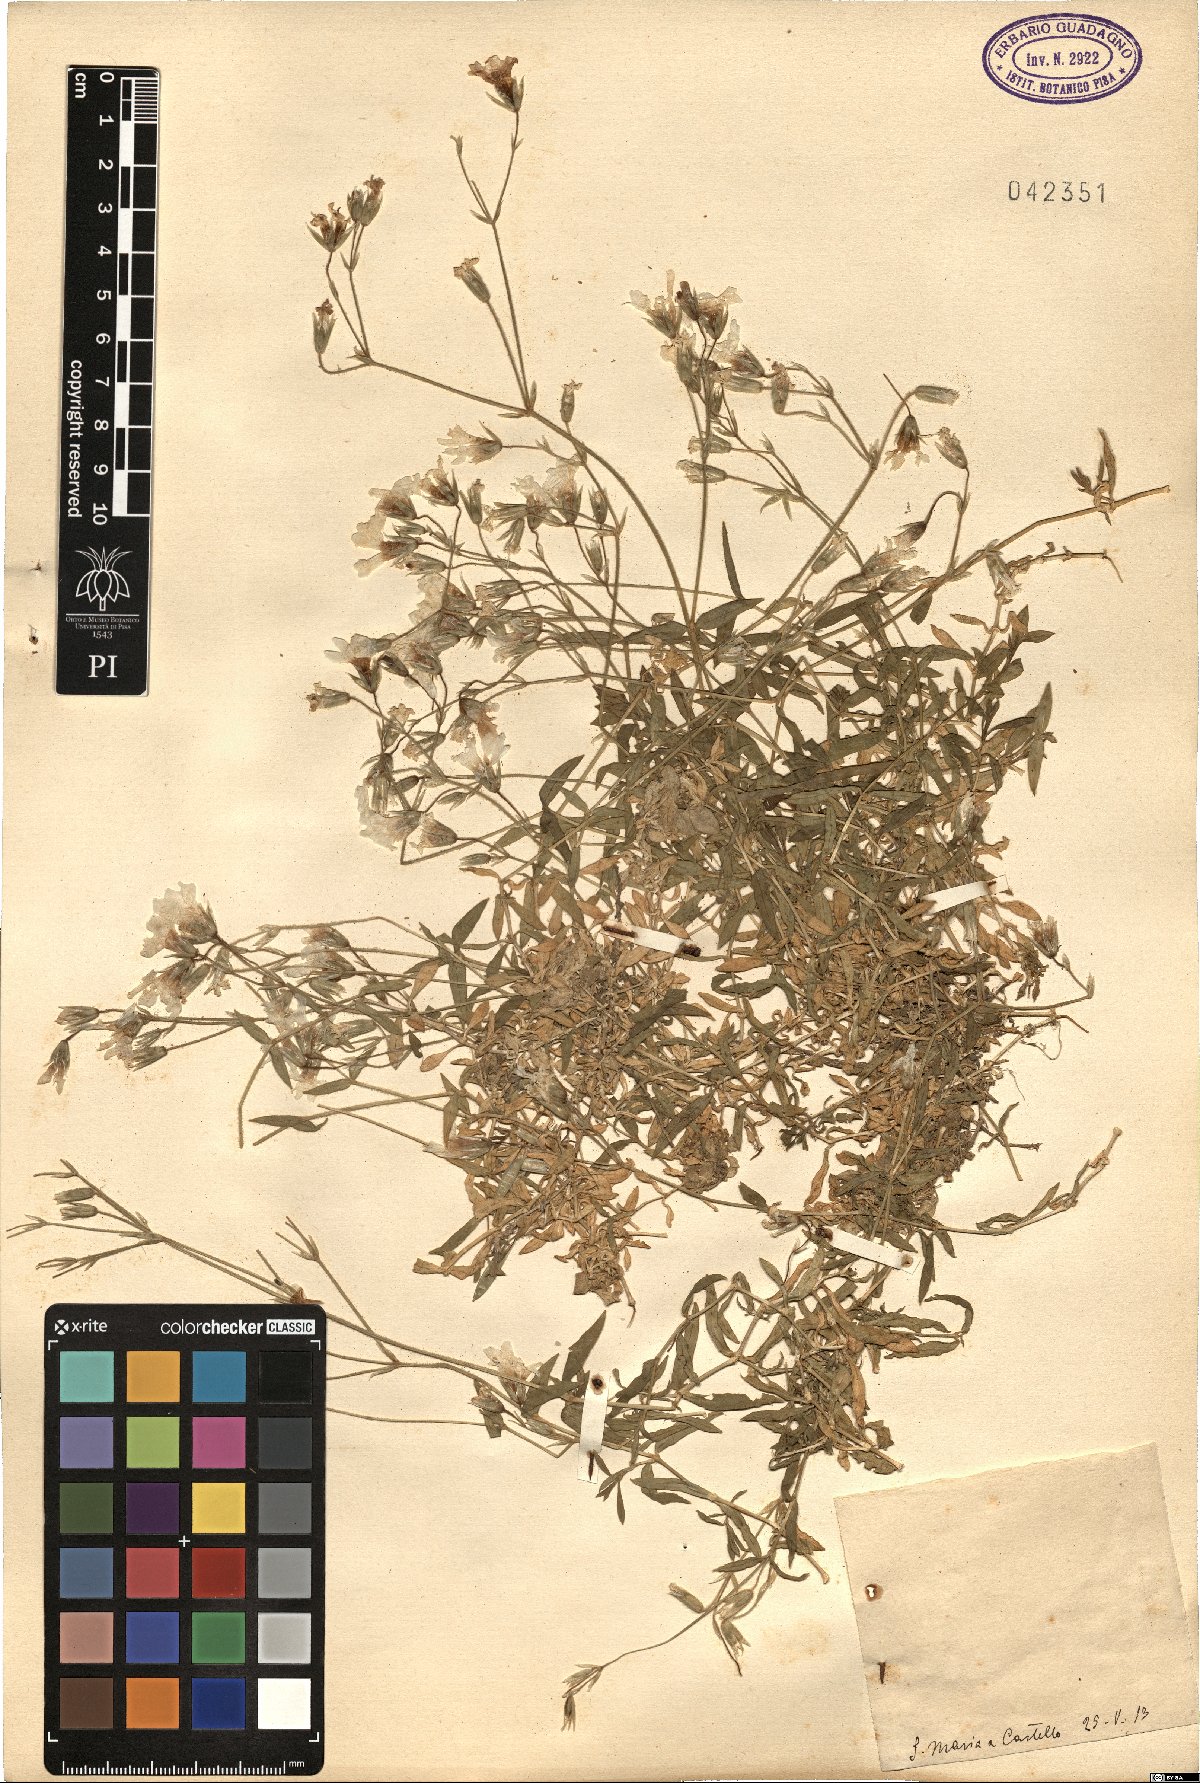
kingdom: Plantae
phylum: Tracheophyta
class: Magnoliopsida
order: Caryophyllales
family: Caryophyllaceae
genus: Cerastium
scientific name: Cerastium
